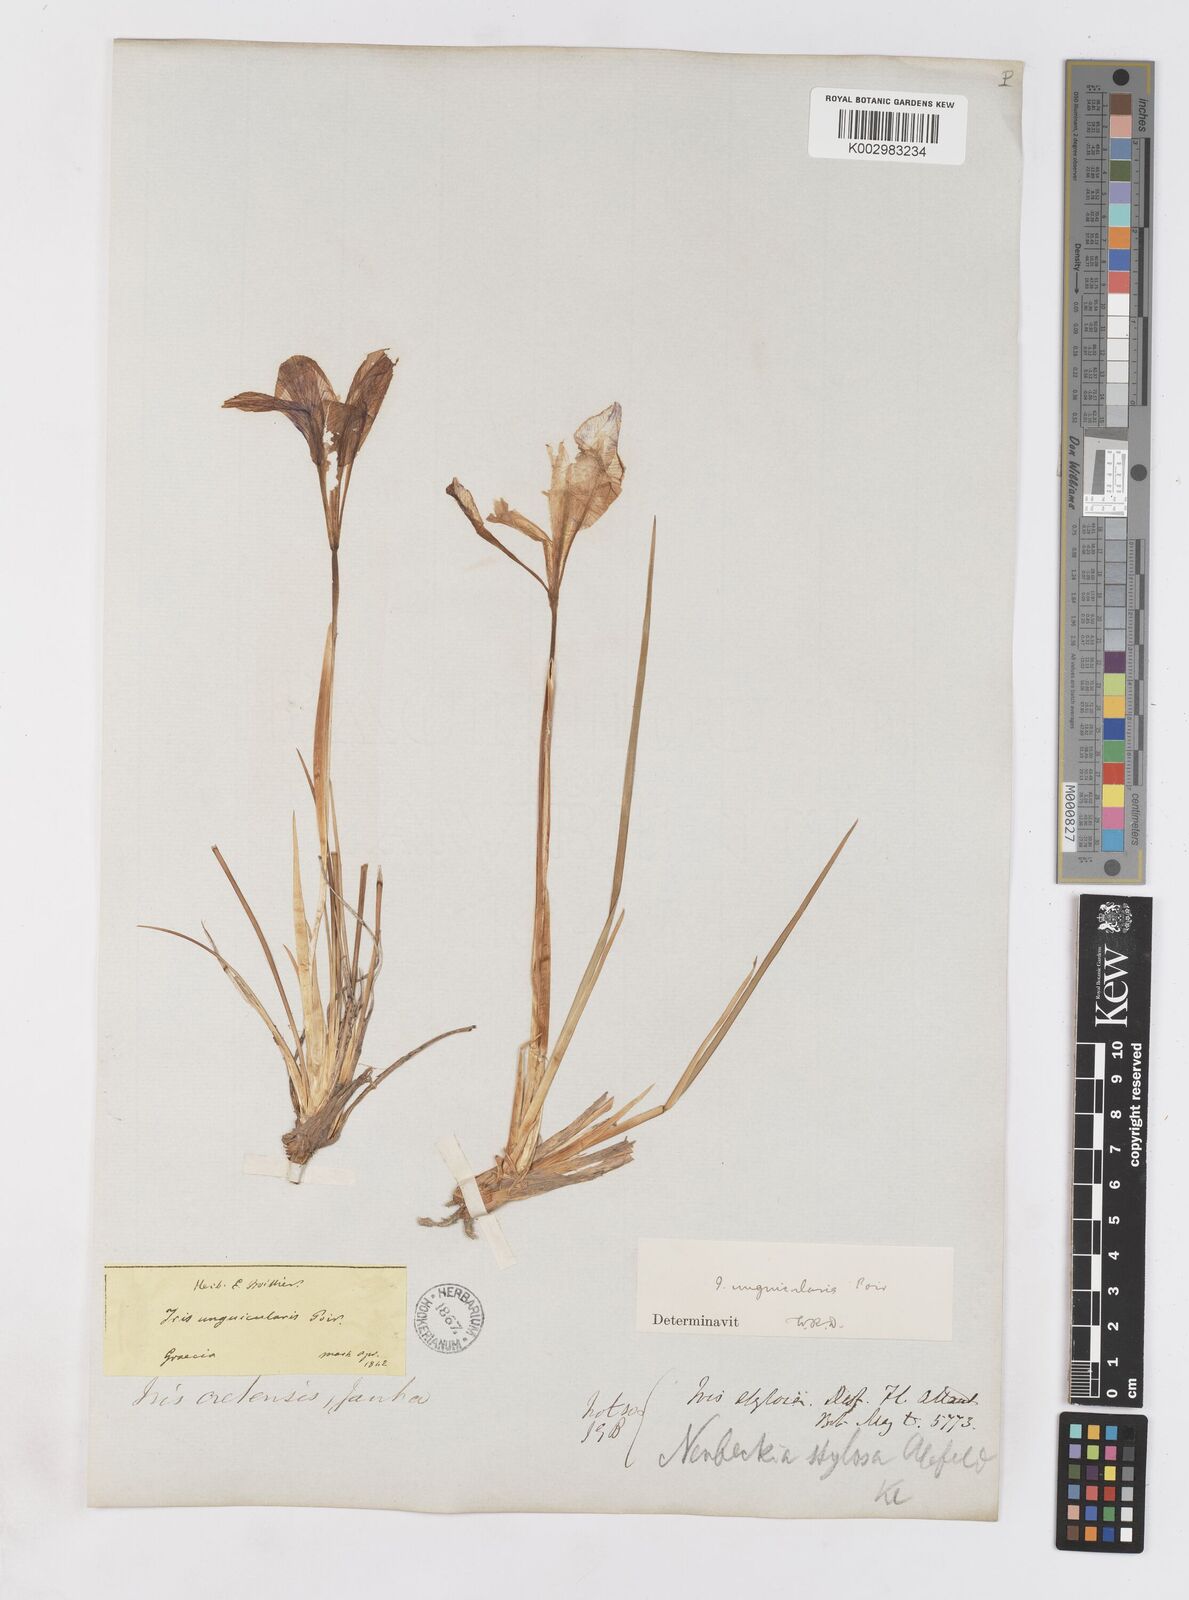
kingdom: Plantae
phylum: Tracheophyta
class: Liliopsida
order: Asparagales
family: Iridaceae
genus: Iris
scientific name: Iris unguicularis
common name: Algerian iris
